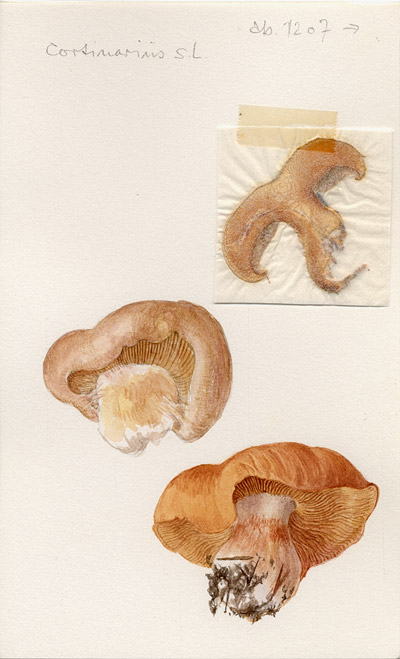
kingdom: Fungi
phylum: Basidiomycota
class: Agaricomycetes
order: Agaricales
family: Cortinariaceae
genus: Cortinarius
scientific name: Cortinarius
